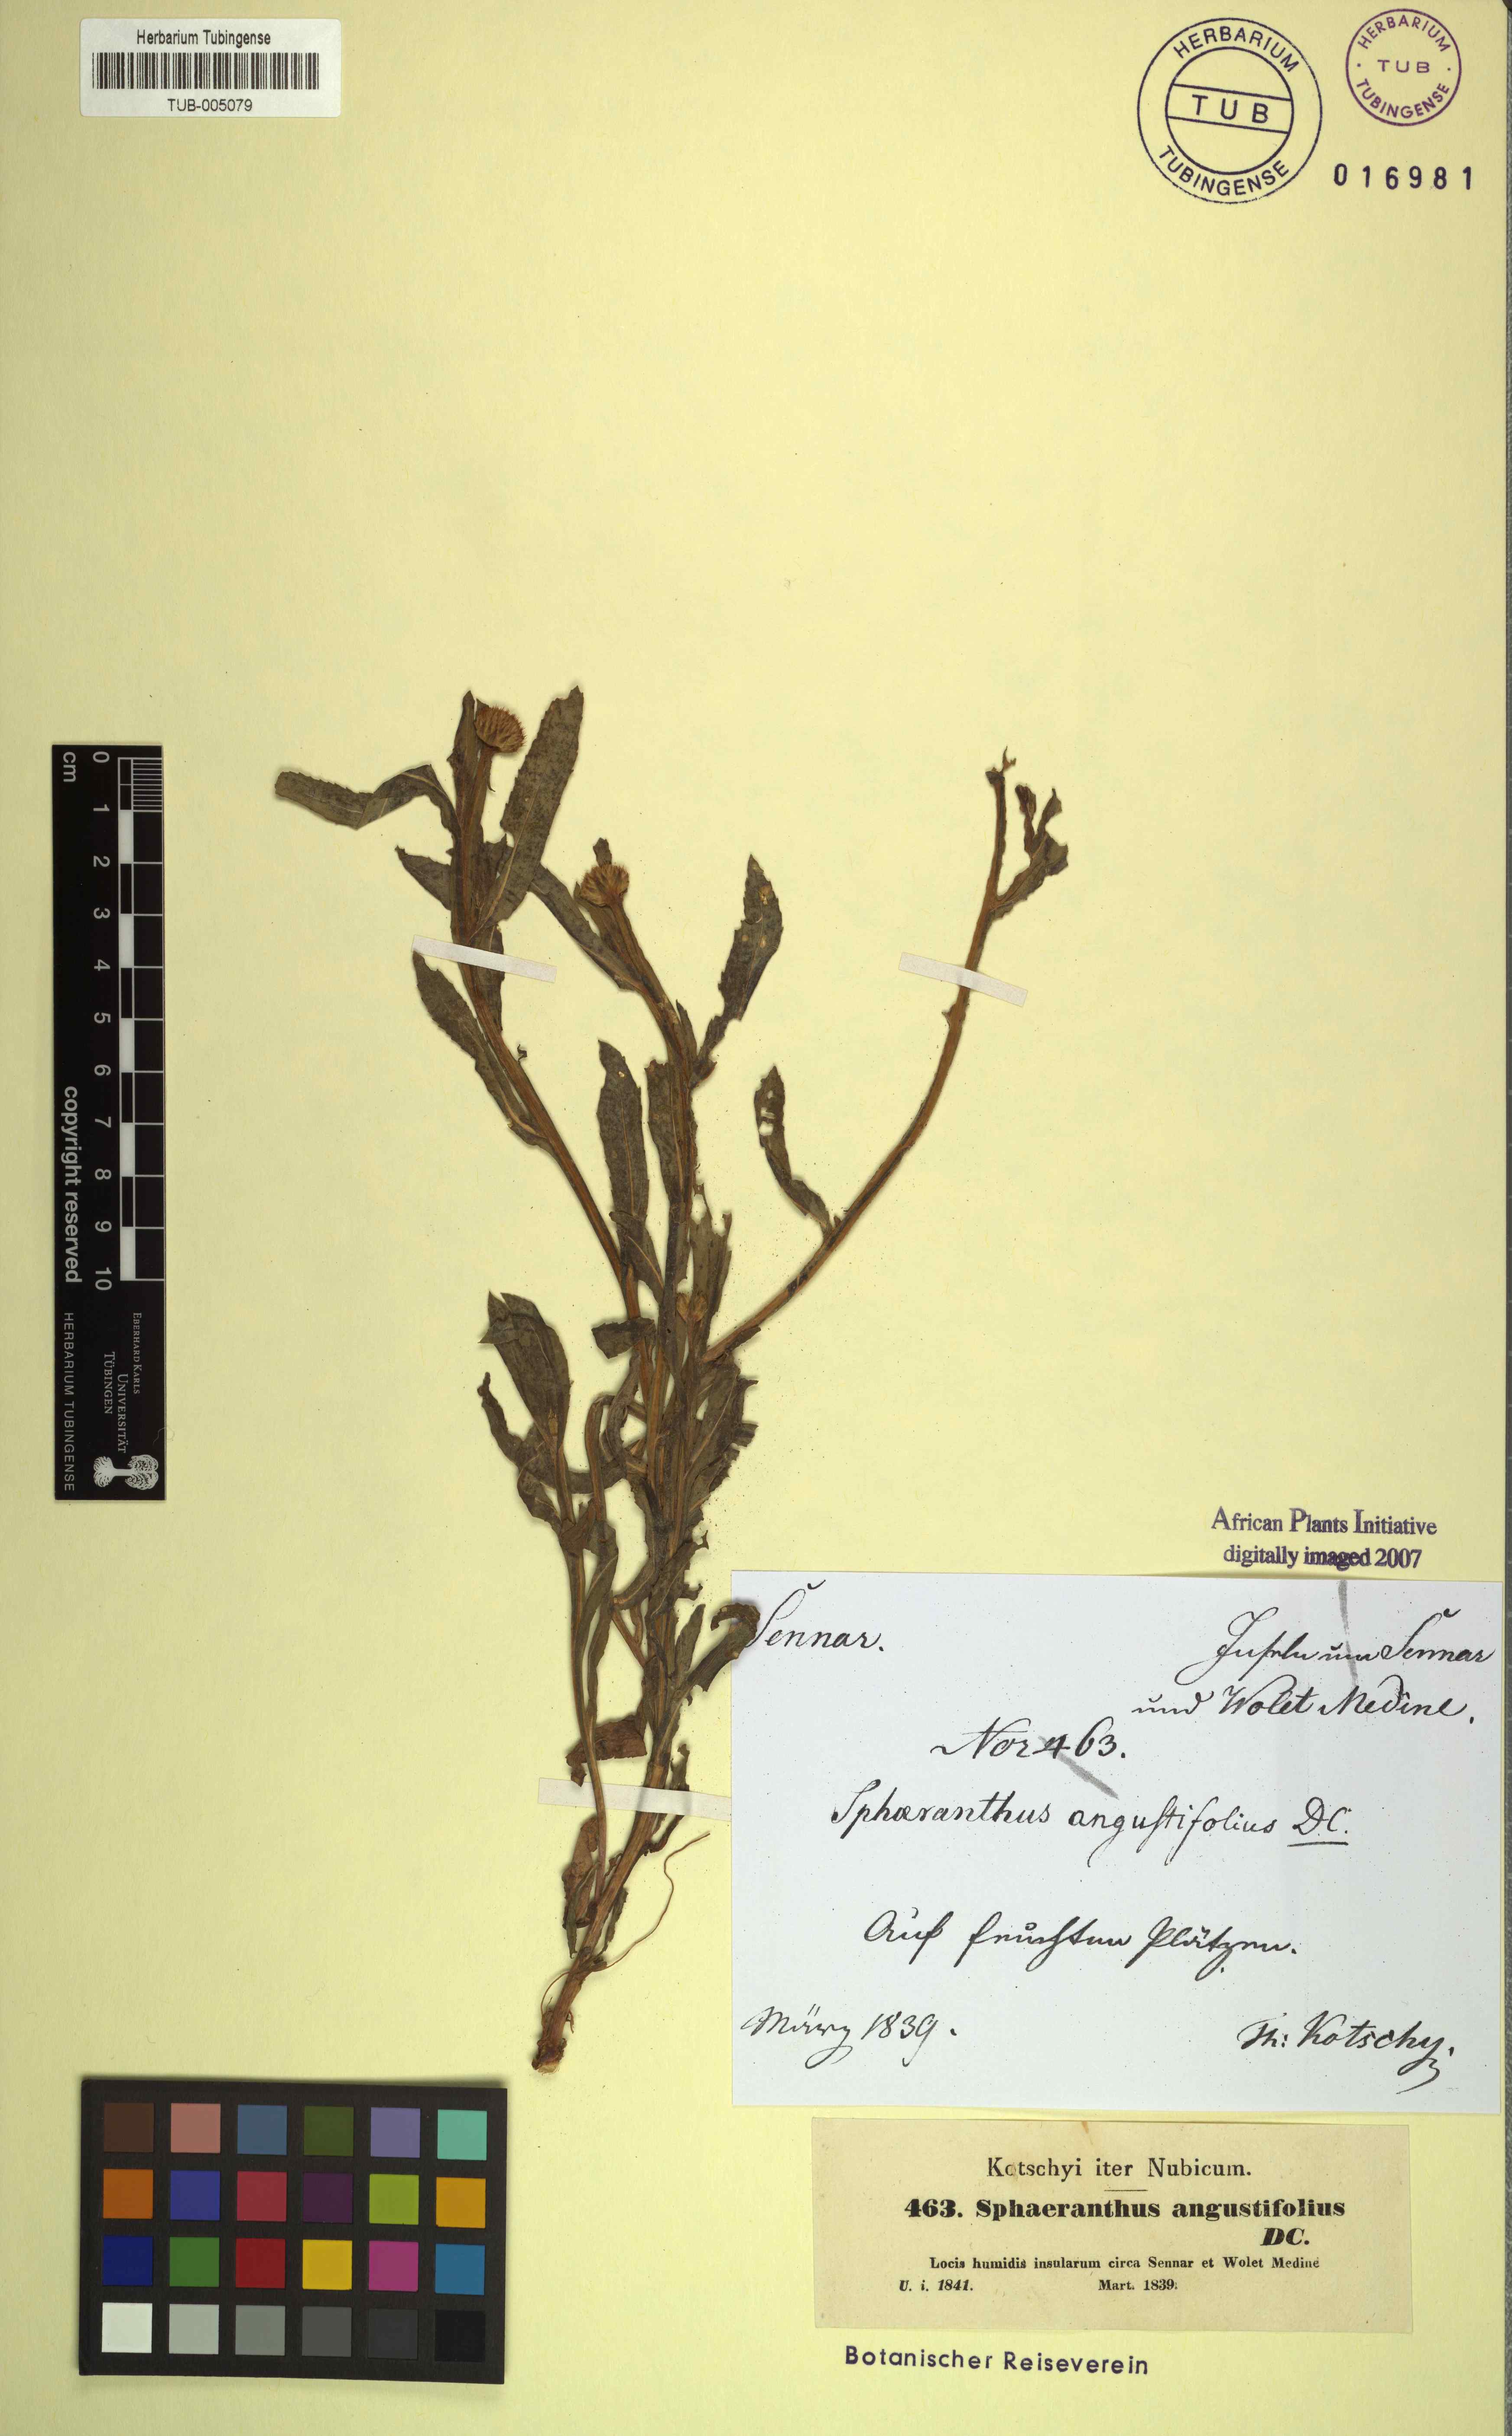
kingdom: Plantae
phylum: Tracheophyta
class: Magnoliopsida
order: Asterales
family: Asteraceae
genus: Sphaeranthus
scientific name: Sphaeranthus angustifolius
